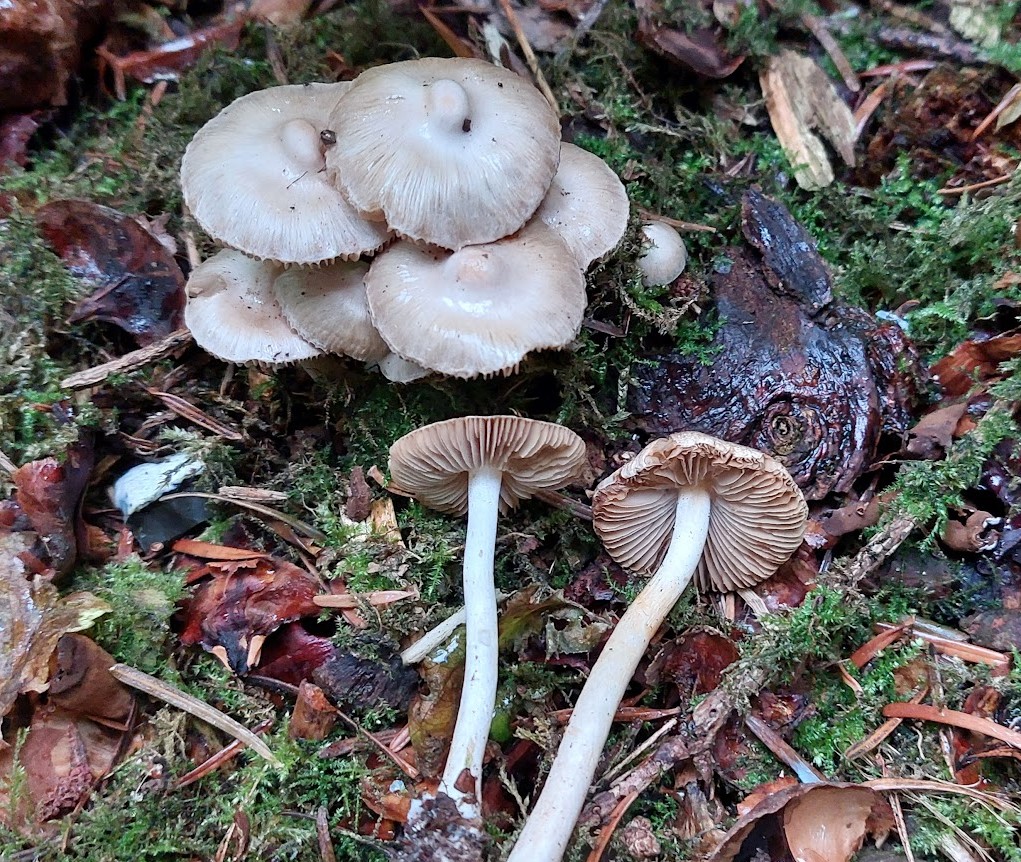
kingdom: Fungi
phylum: Basidiomycota
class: Agaricomycetes
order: Agaricales
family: Inocybaceae
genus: Inocybe
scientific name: Inocybe
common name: almindelig trævlhat
